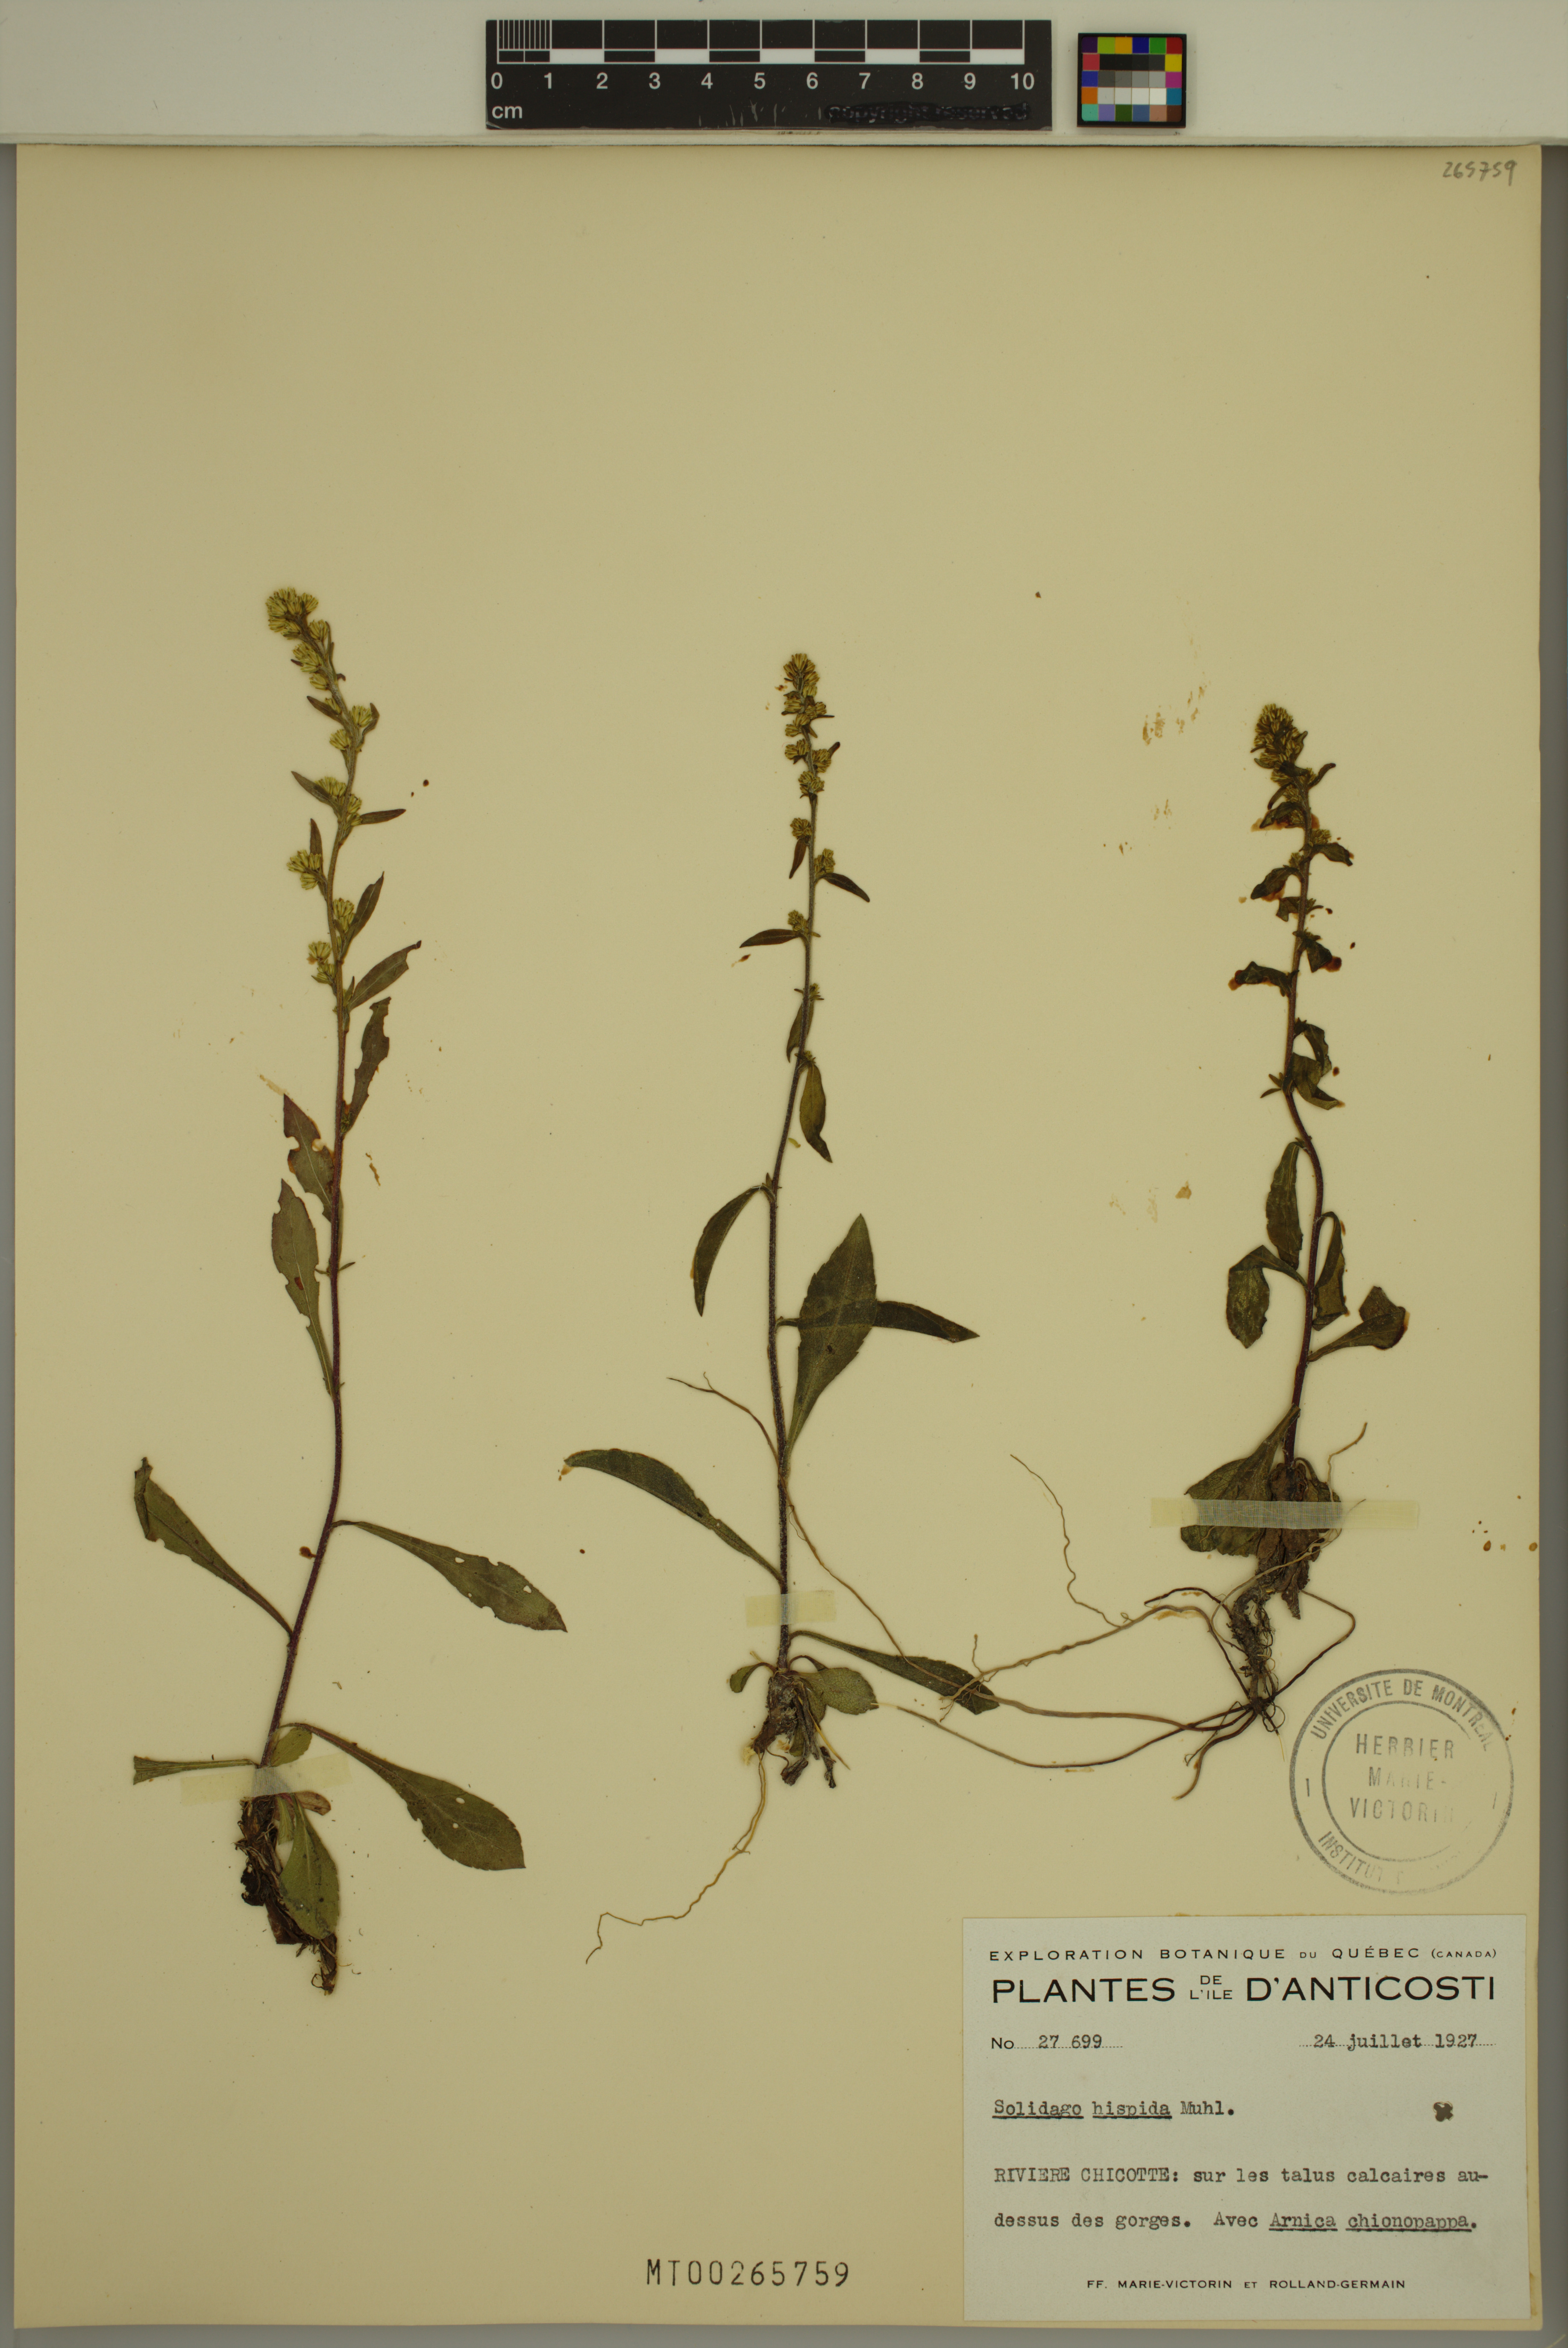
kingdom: Plantae
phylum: Tracheophyta
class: Magnoliopsida
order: Asterales
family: Asteraceae
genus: Solidago
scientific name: Solidago hispida
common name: Hairy goldenrod
